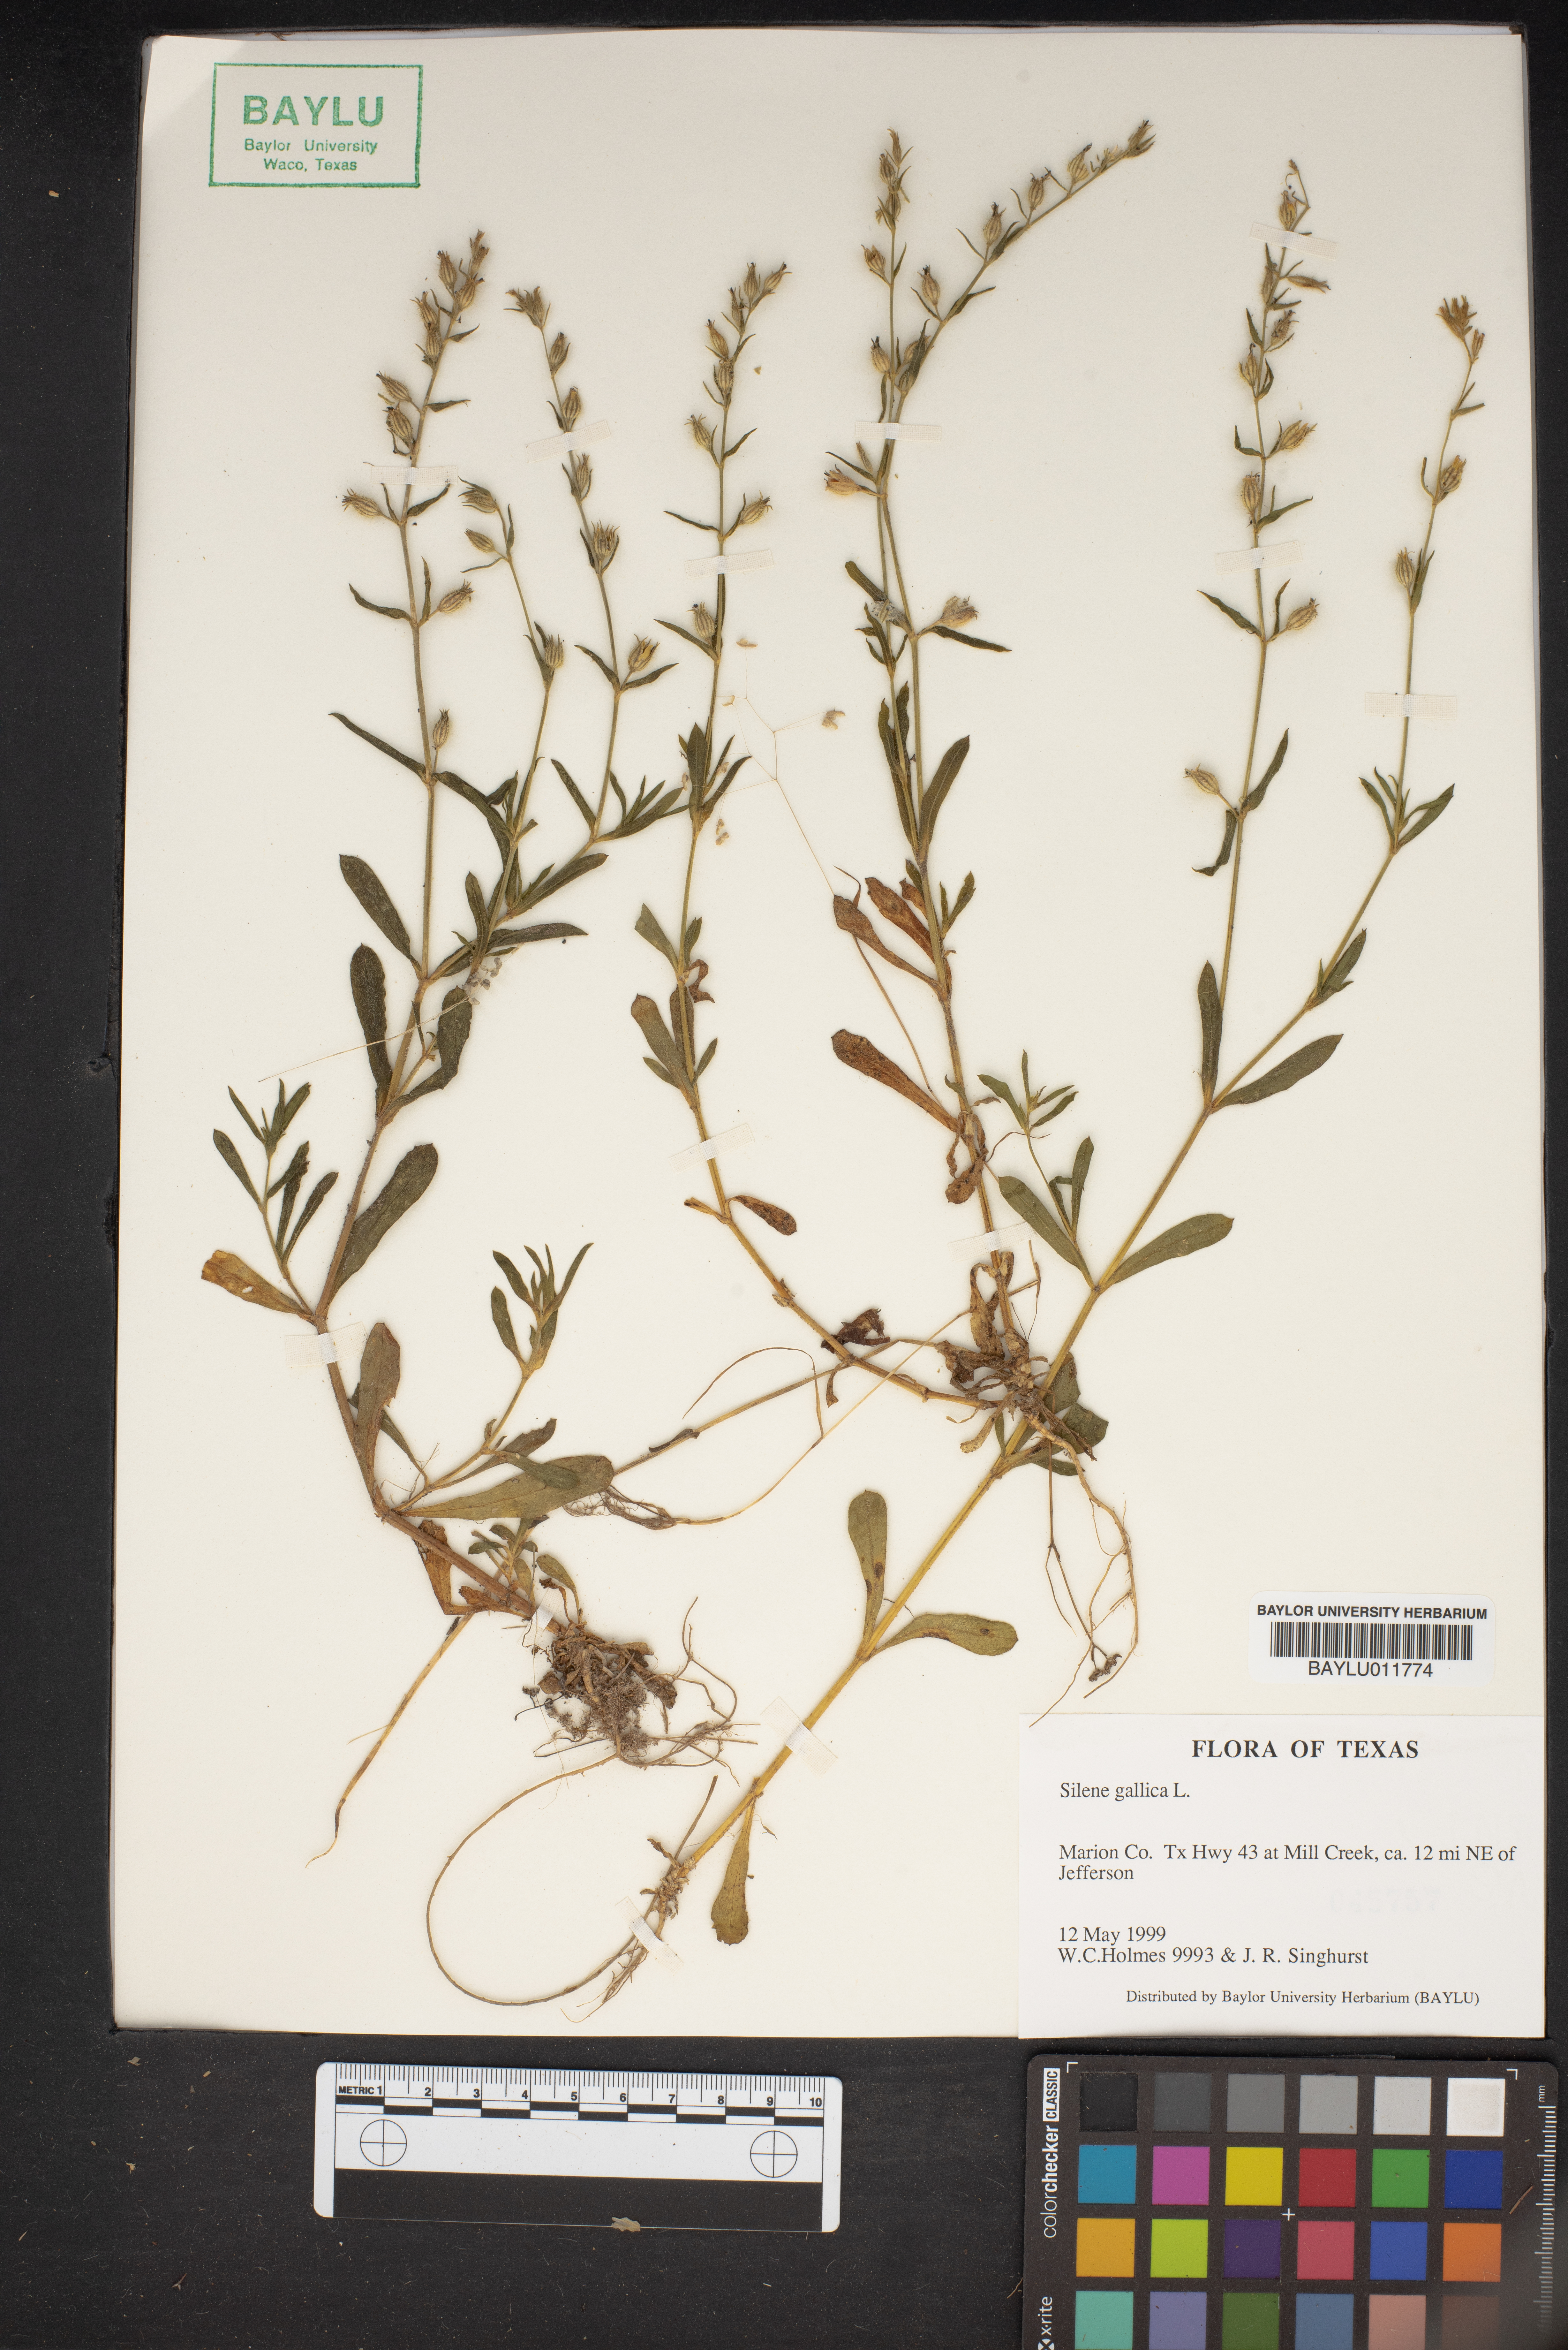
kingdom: Plantae
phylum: Tracheophyta
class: Magnoliopsida
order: Caryophyllales
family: Caryophyllaceae
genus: Silene
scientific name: Silene gallica
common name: Small-flowered catchfly
